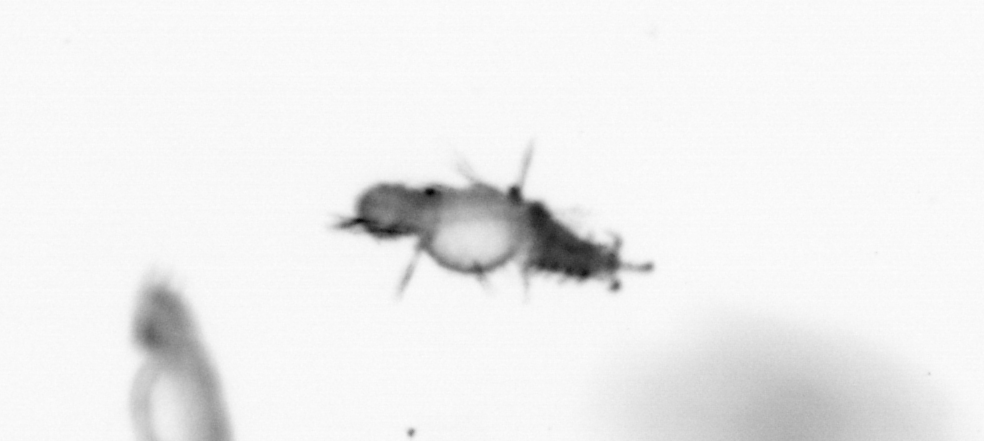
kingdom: Animalia
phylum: Annelida
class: Polychaeta
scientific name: Polychaeta
